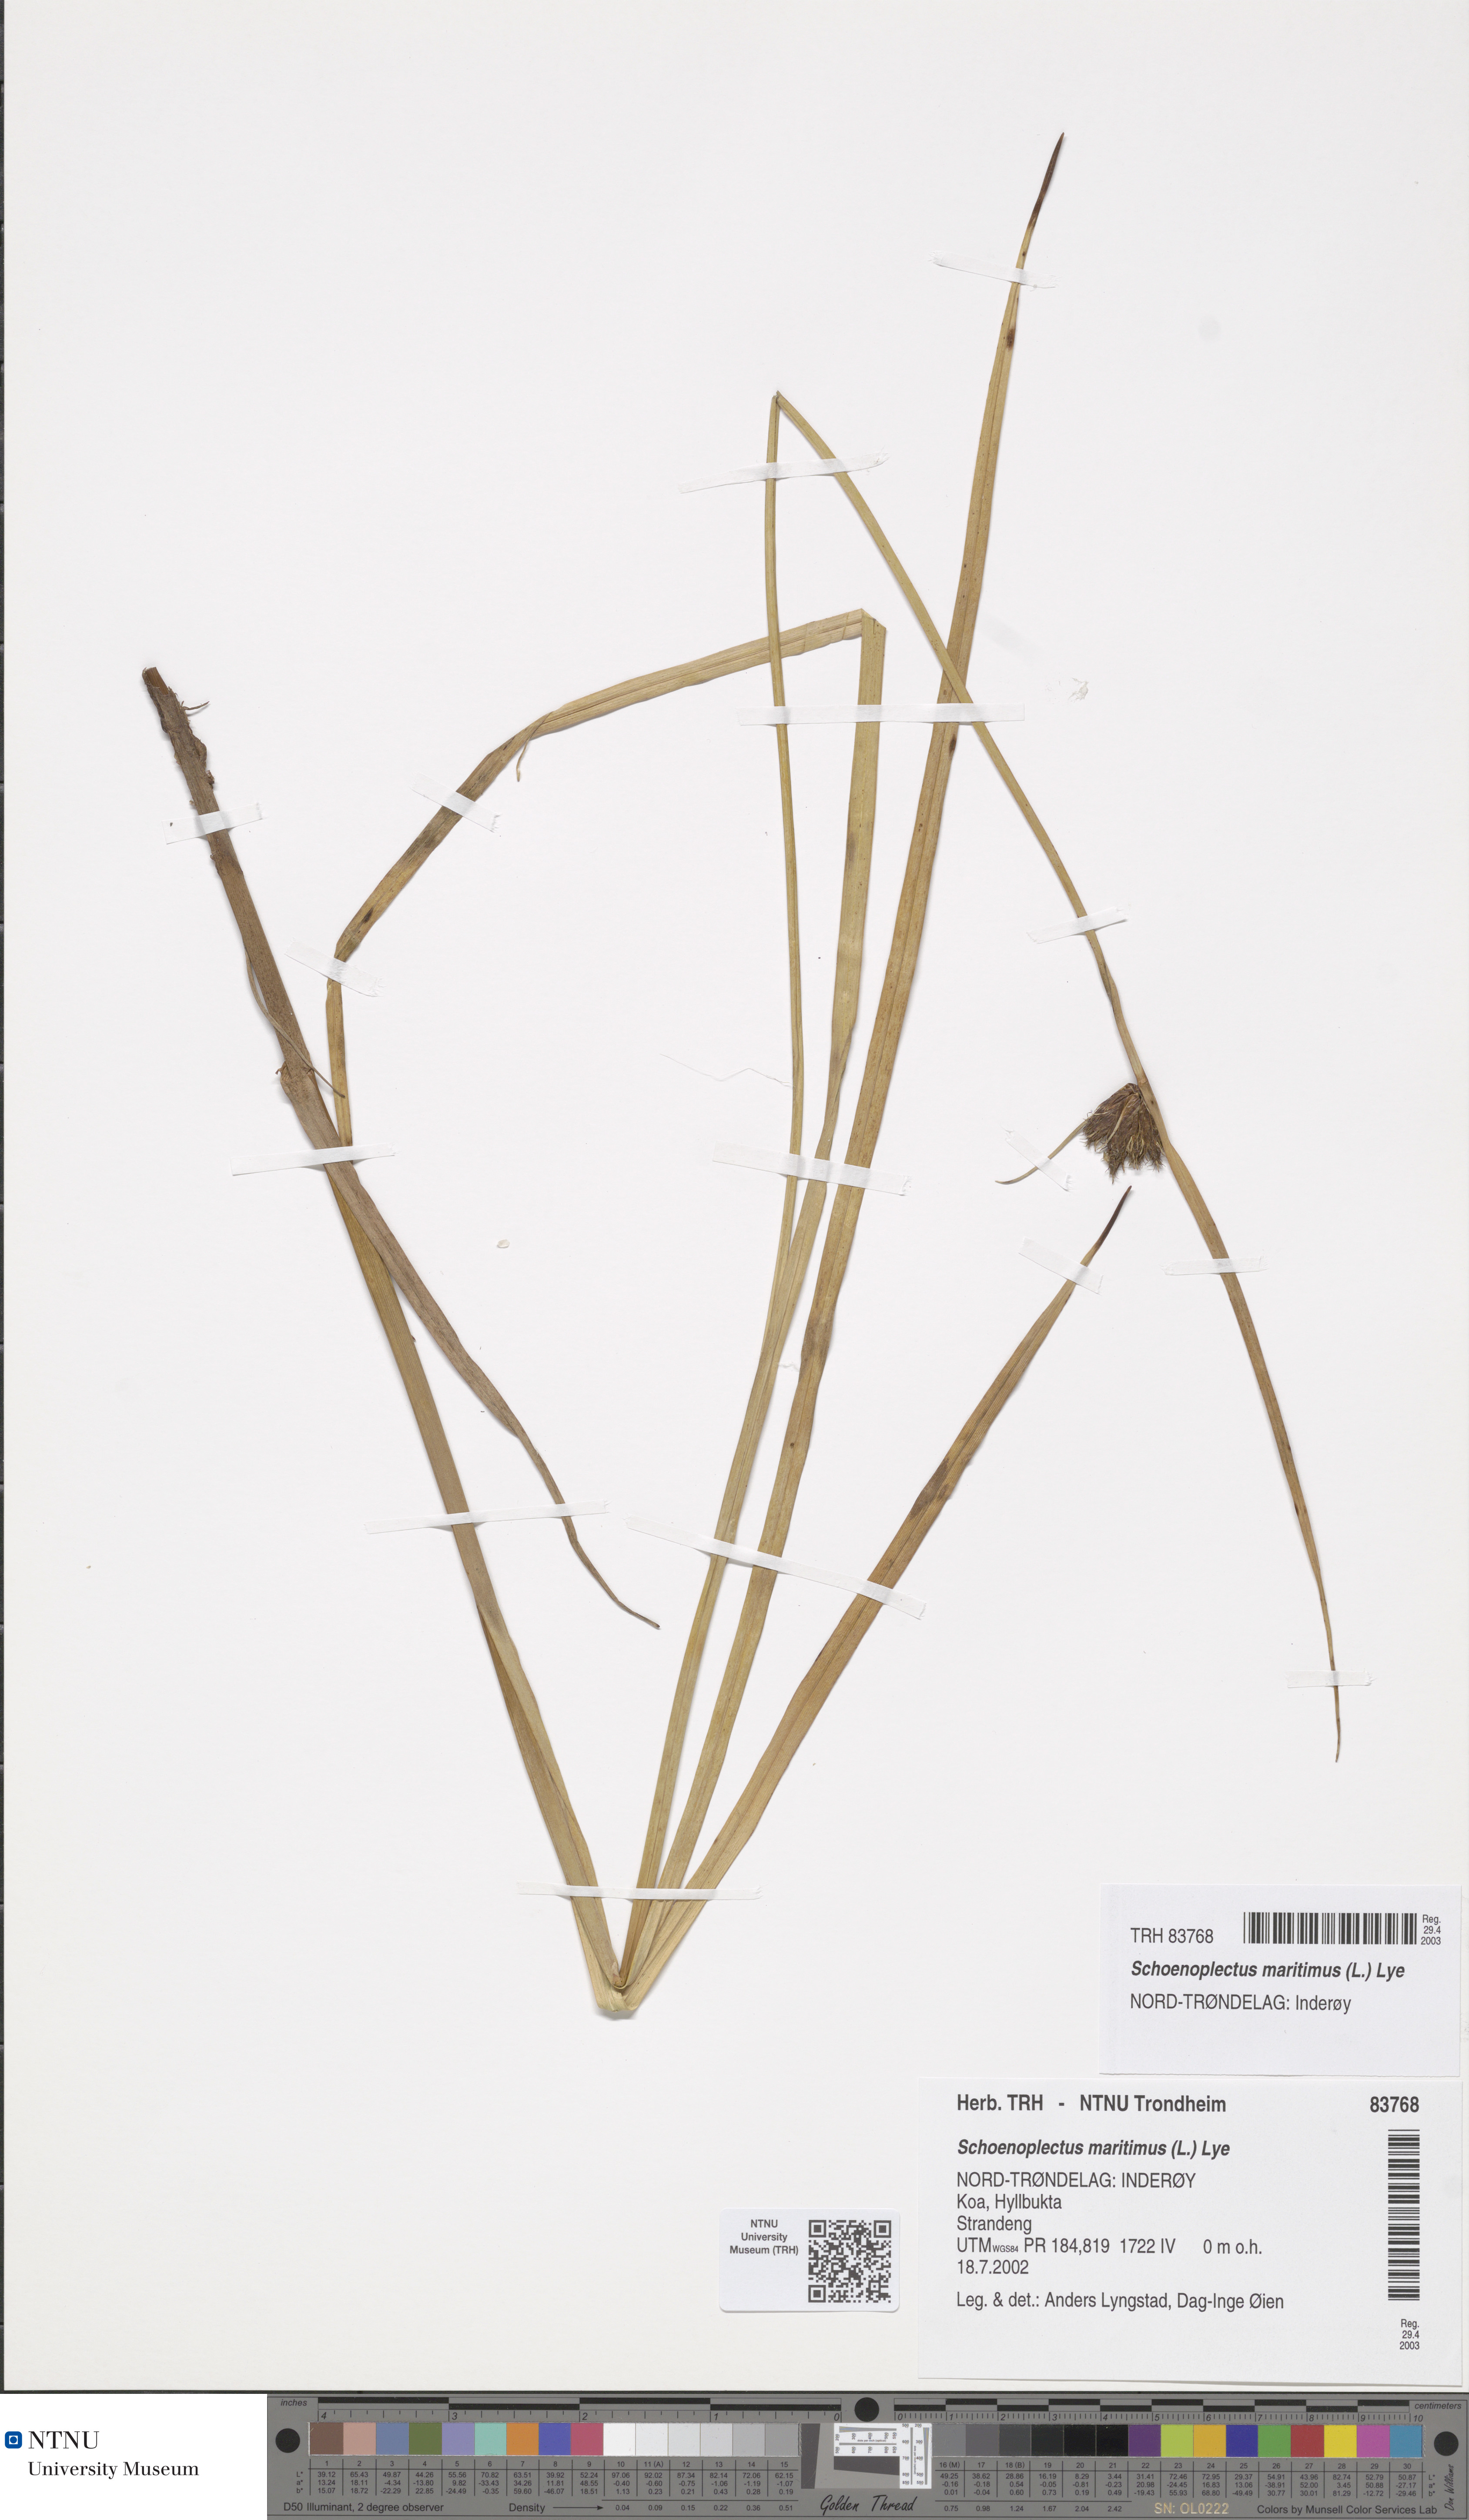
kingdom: Plantae
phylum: Tracheophyta
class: Liliopsida
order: Poales
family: Cyperaceae
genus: Bolboschoenus
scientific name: Bolboschoenus maritimus
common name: Sea club-rush
